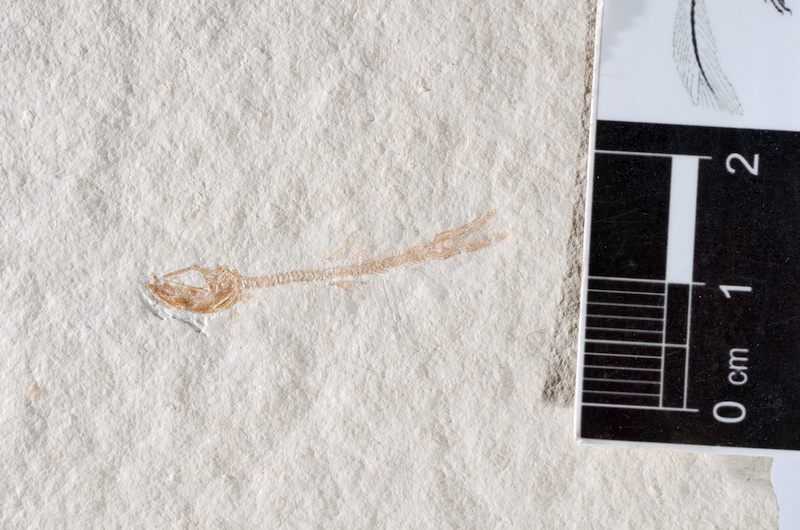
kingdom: Animalia
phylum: Chordata
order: Salmoniformes
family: Orthogonikleithridae
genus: Leptolepides
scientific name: Leptolepides sprattiformis
